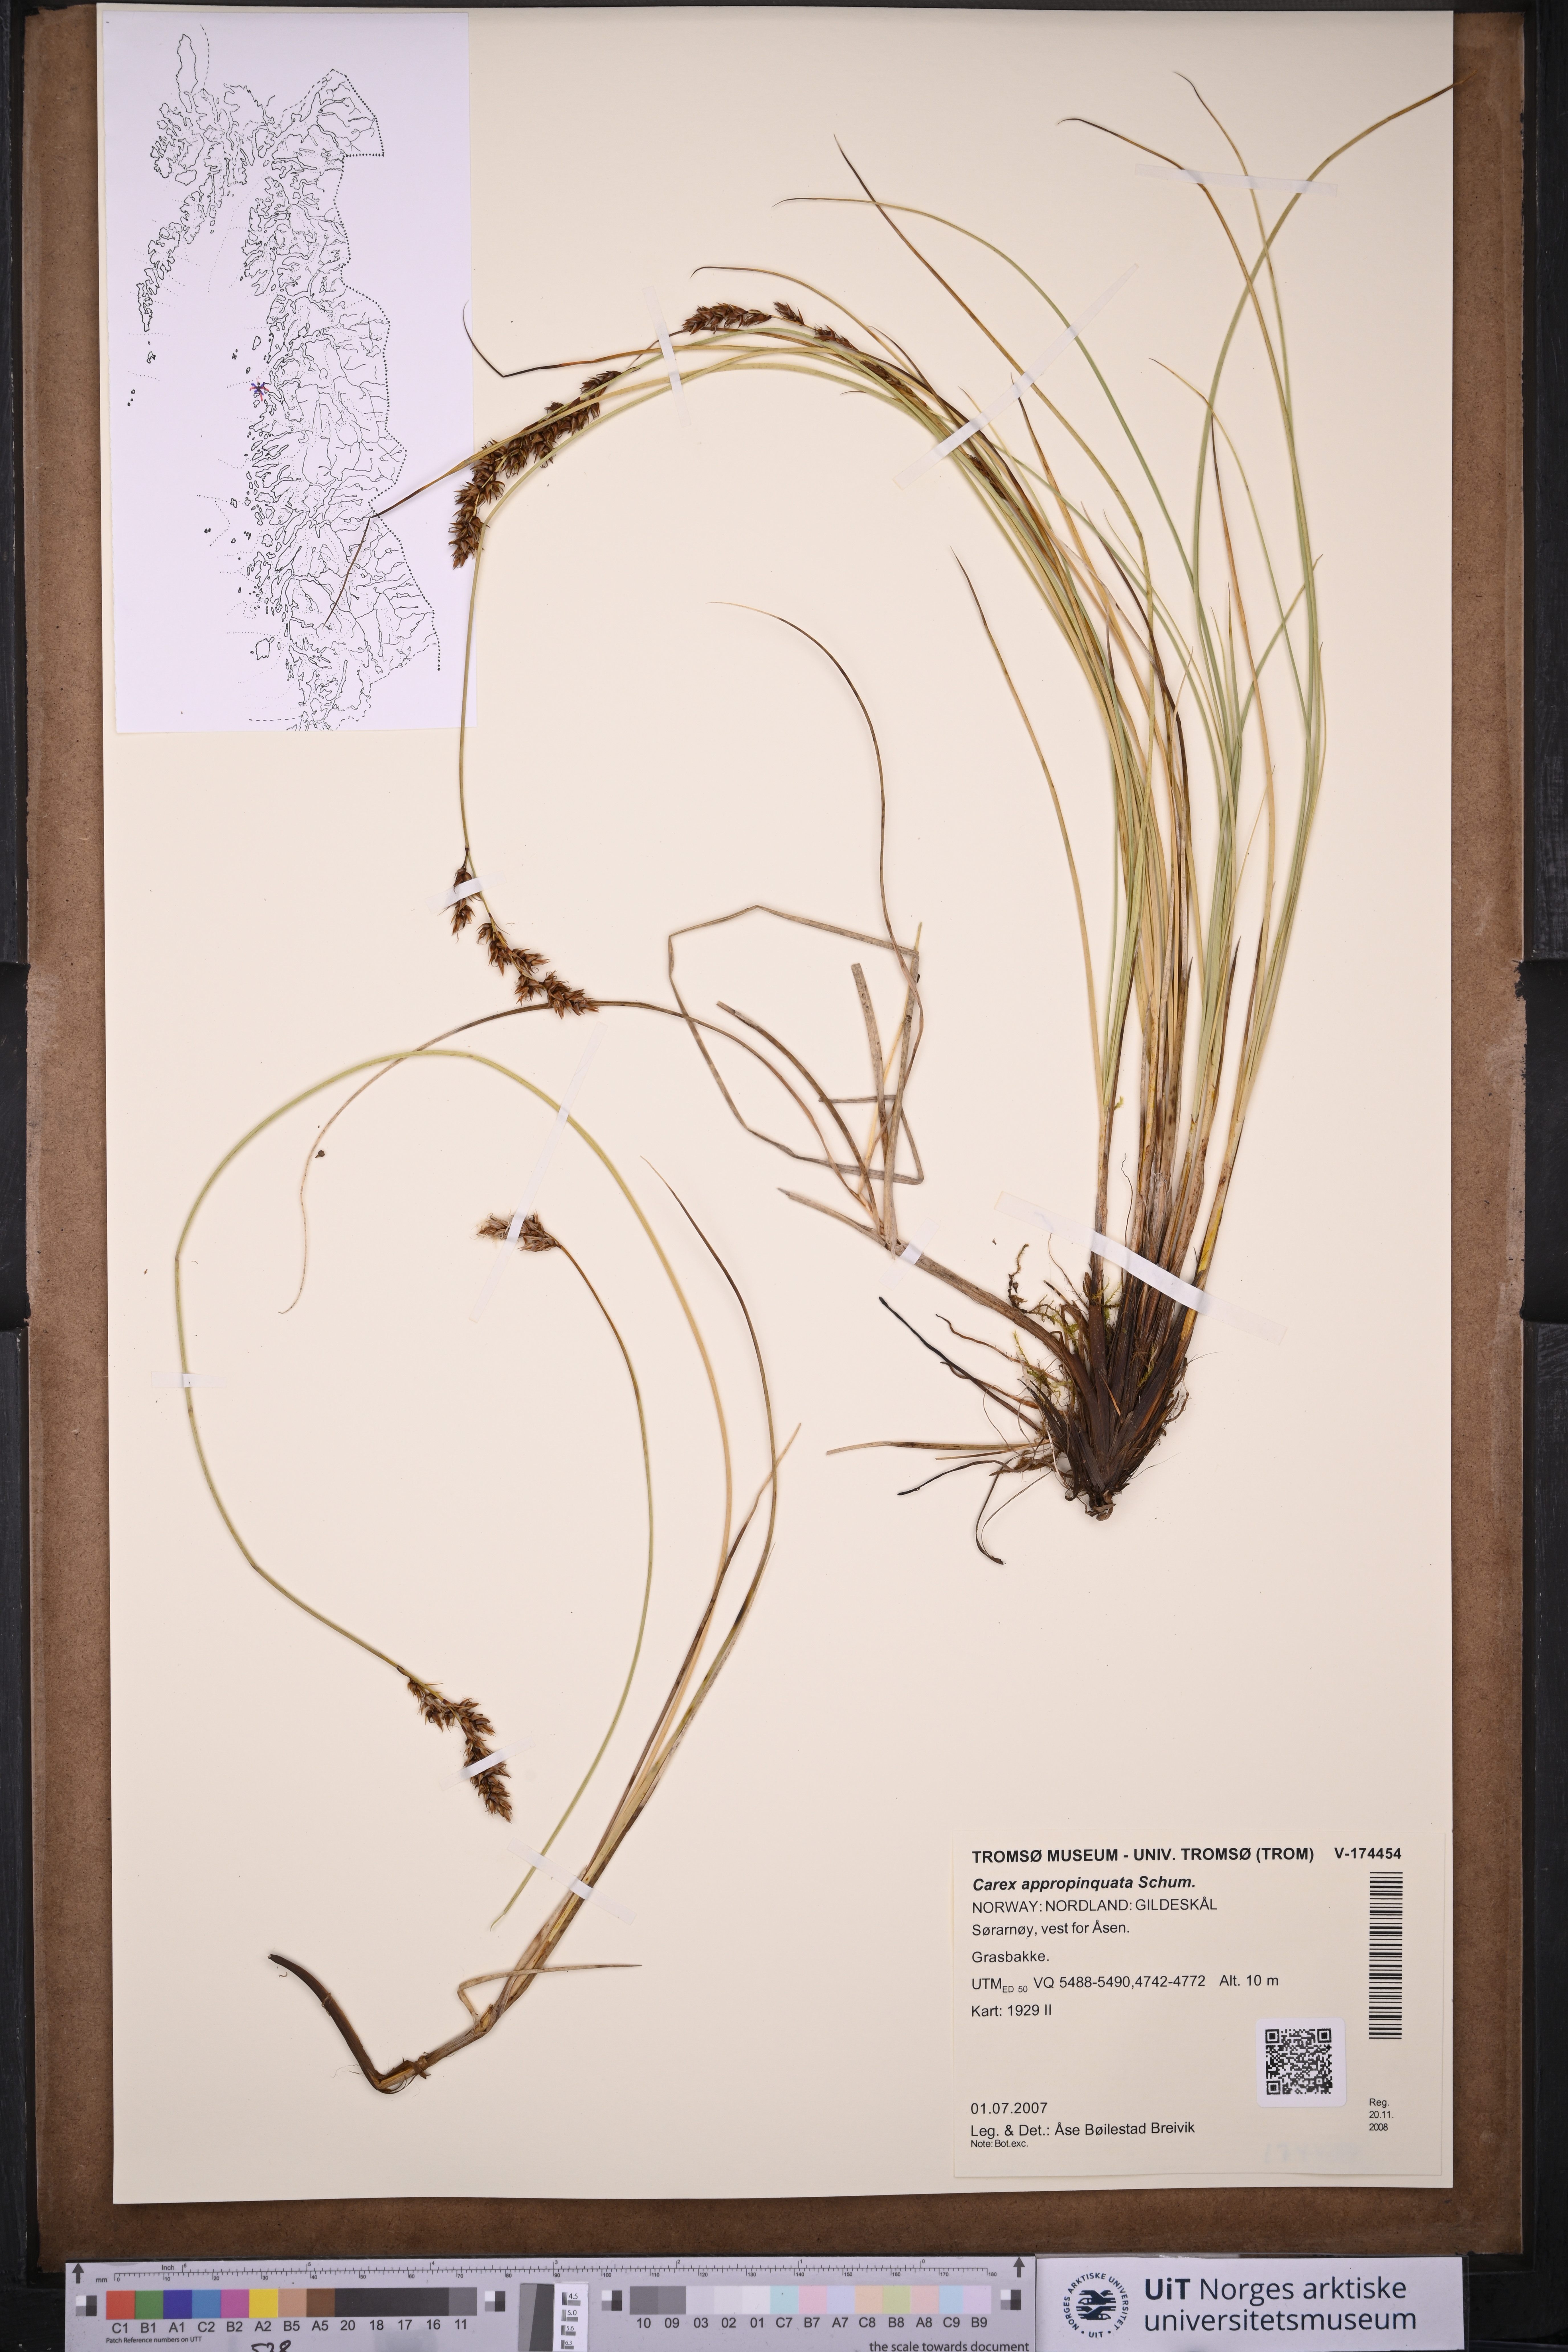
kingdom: Plantae
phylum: Tracheophyta
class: Liliopsida
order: Poales
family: Cyperaceae
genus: Carex
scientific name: Carex appropinquata
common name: Fibrous tussock-sedge
